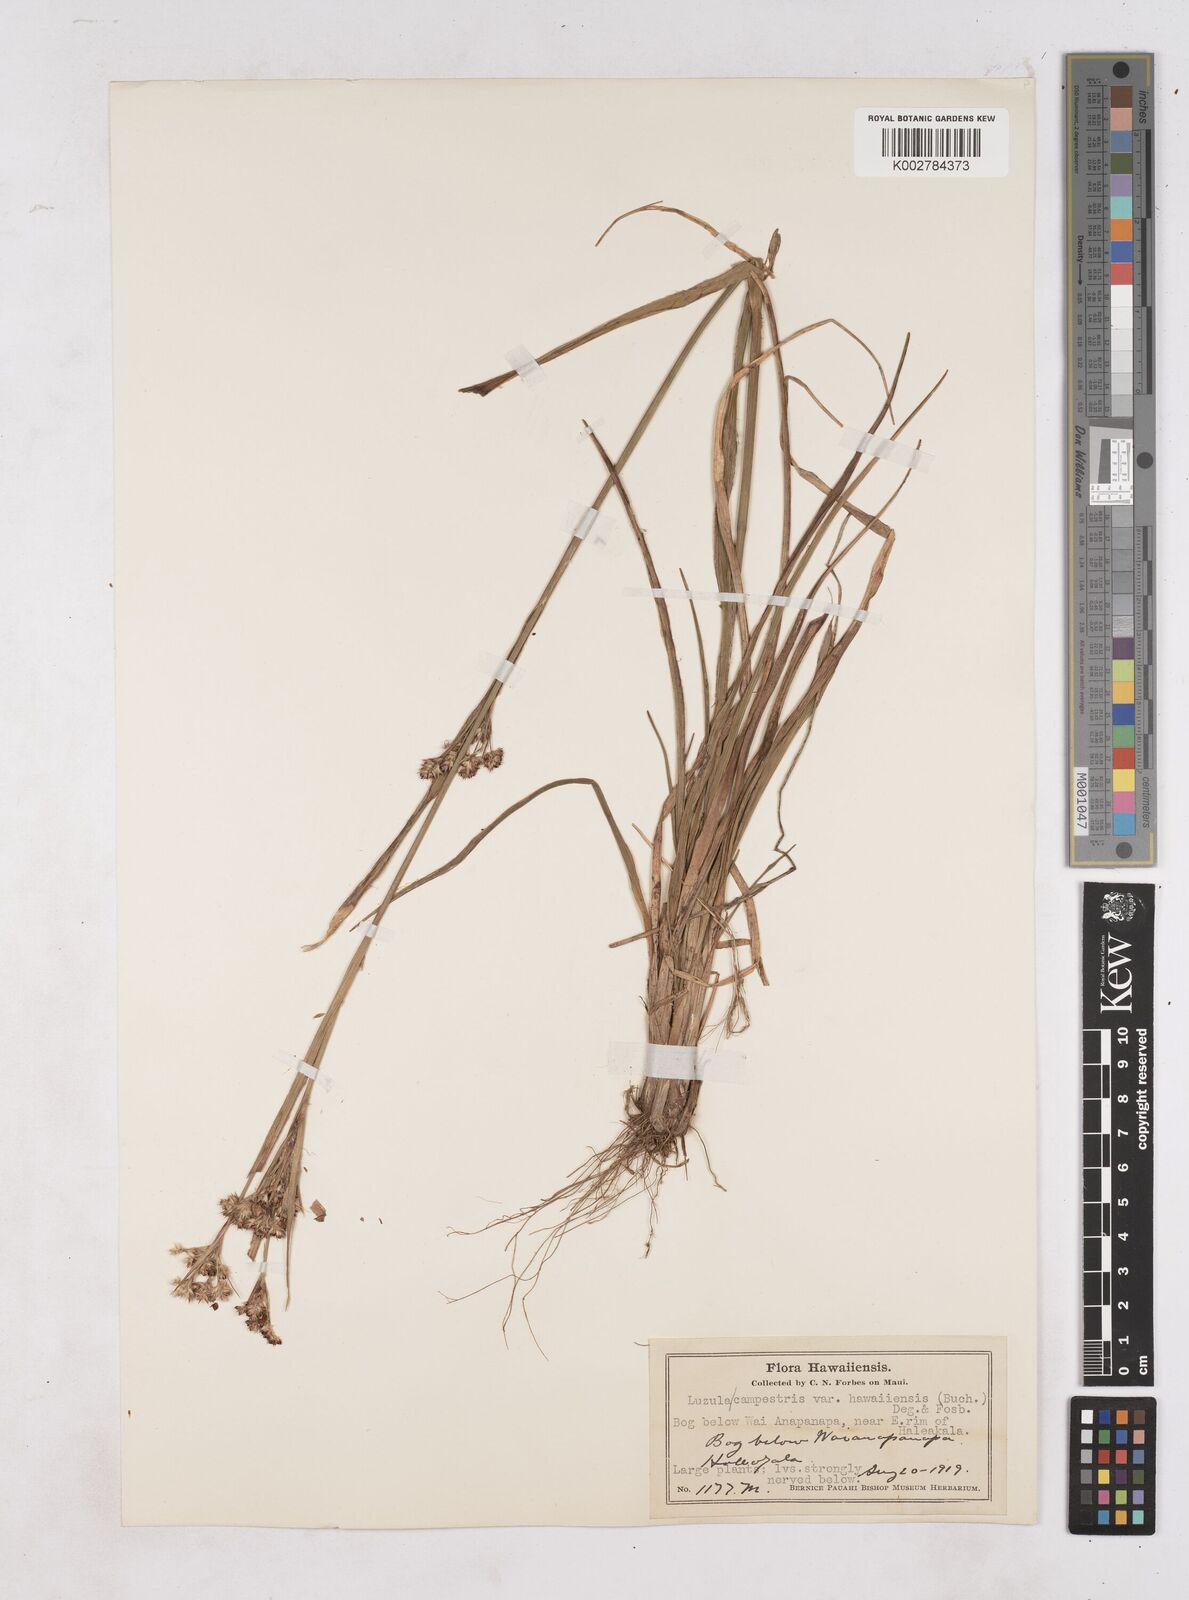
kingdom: Plantae
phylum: Tracheophyta
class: Liliopsida
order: Poales
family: Juncaceae
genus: Luzula
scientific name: Luzula campestris
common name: Field wood-rush
